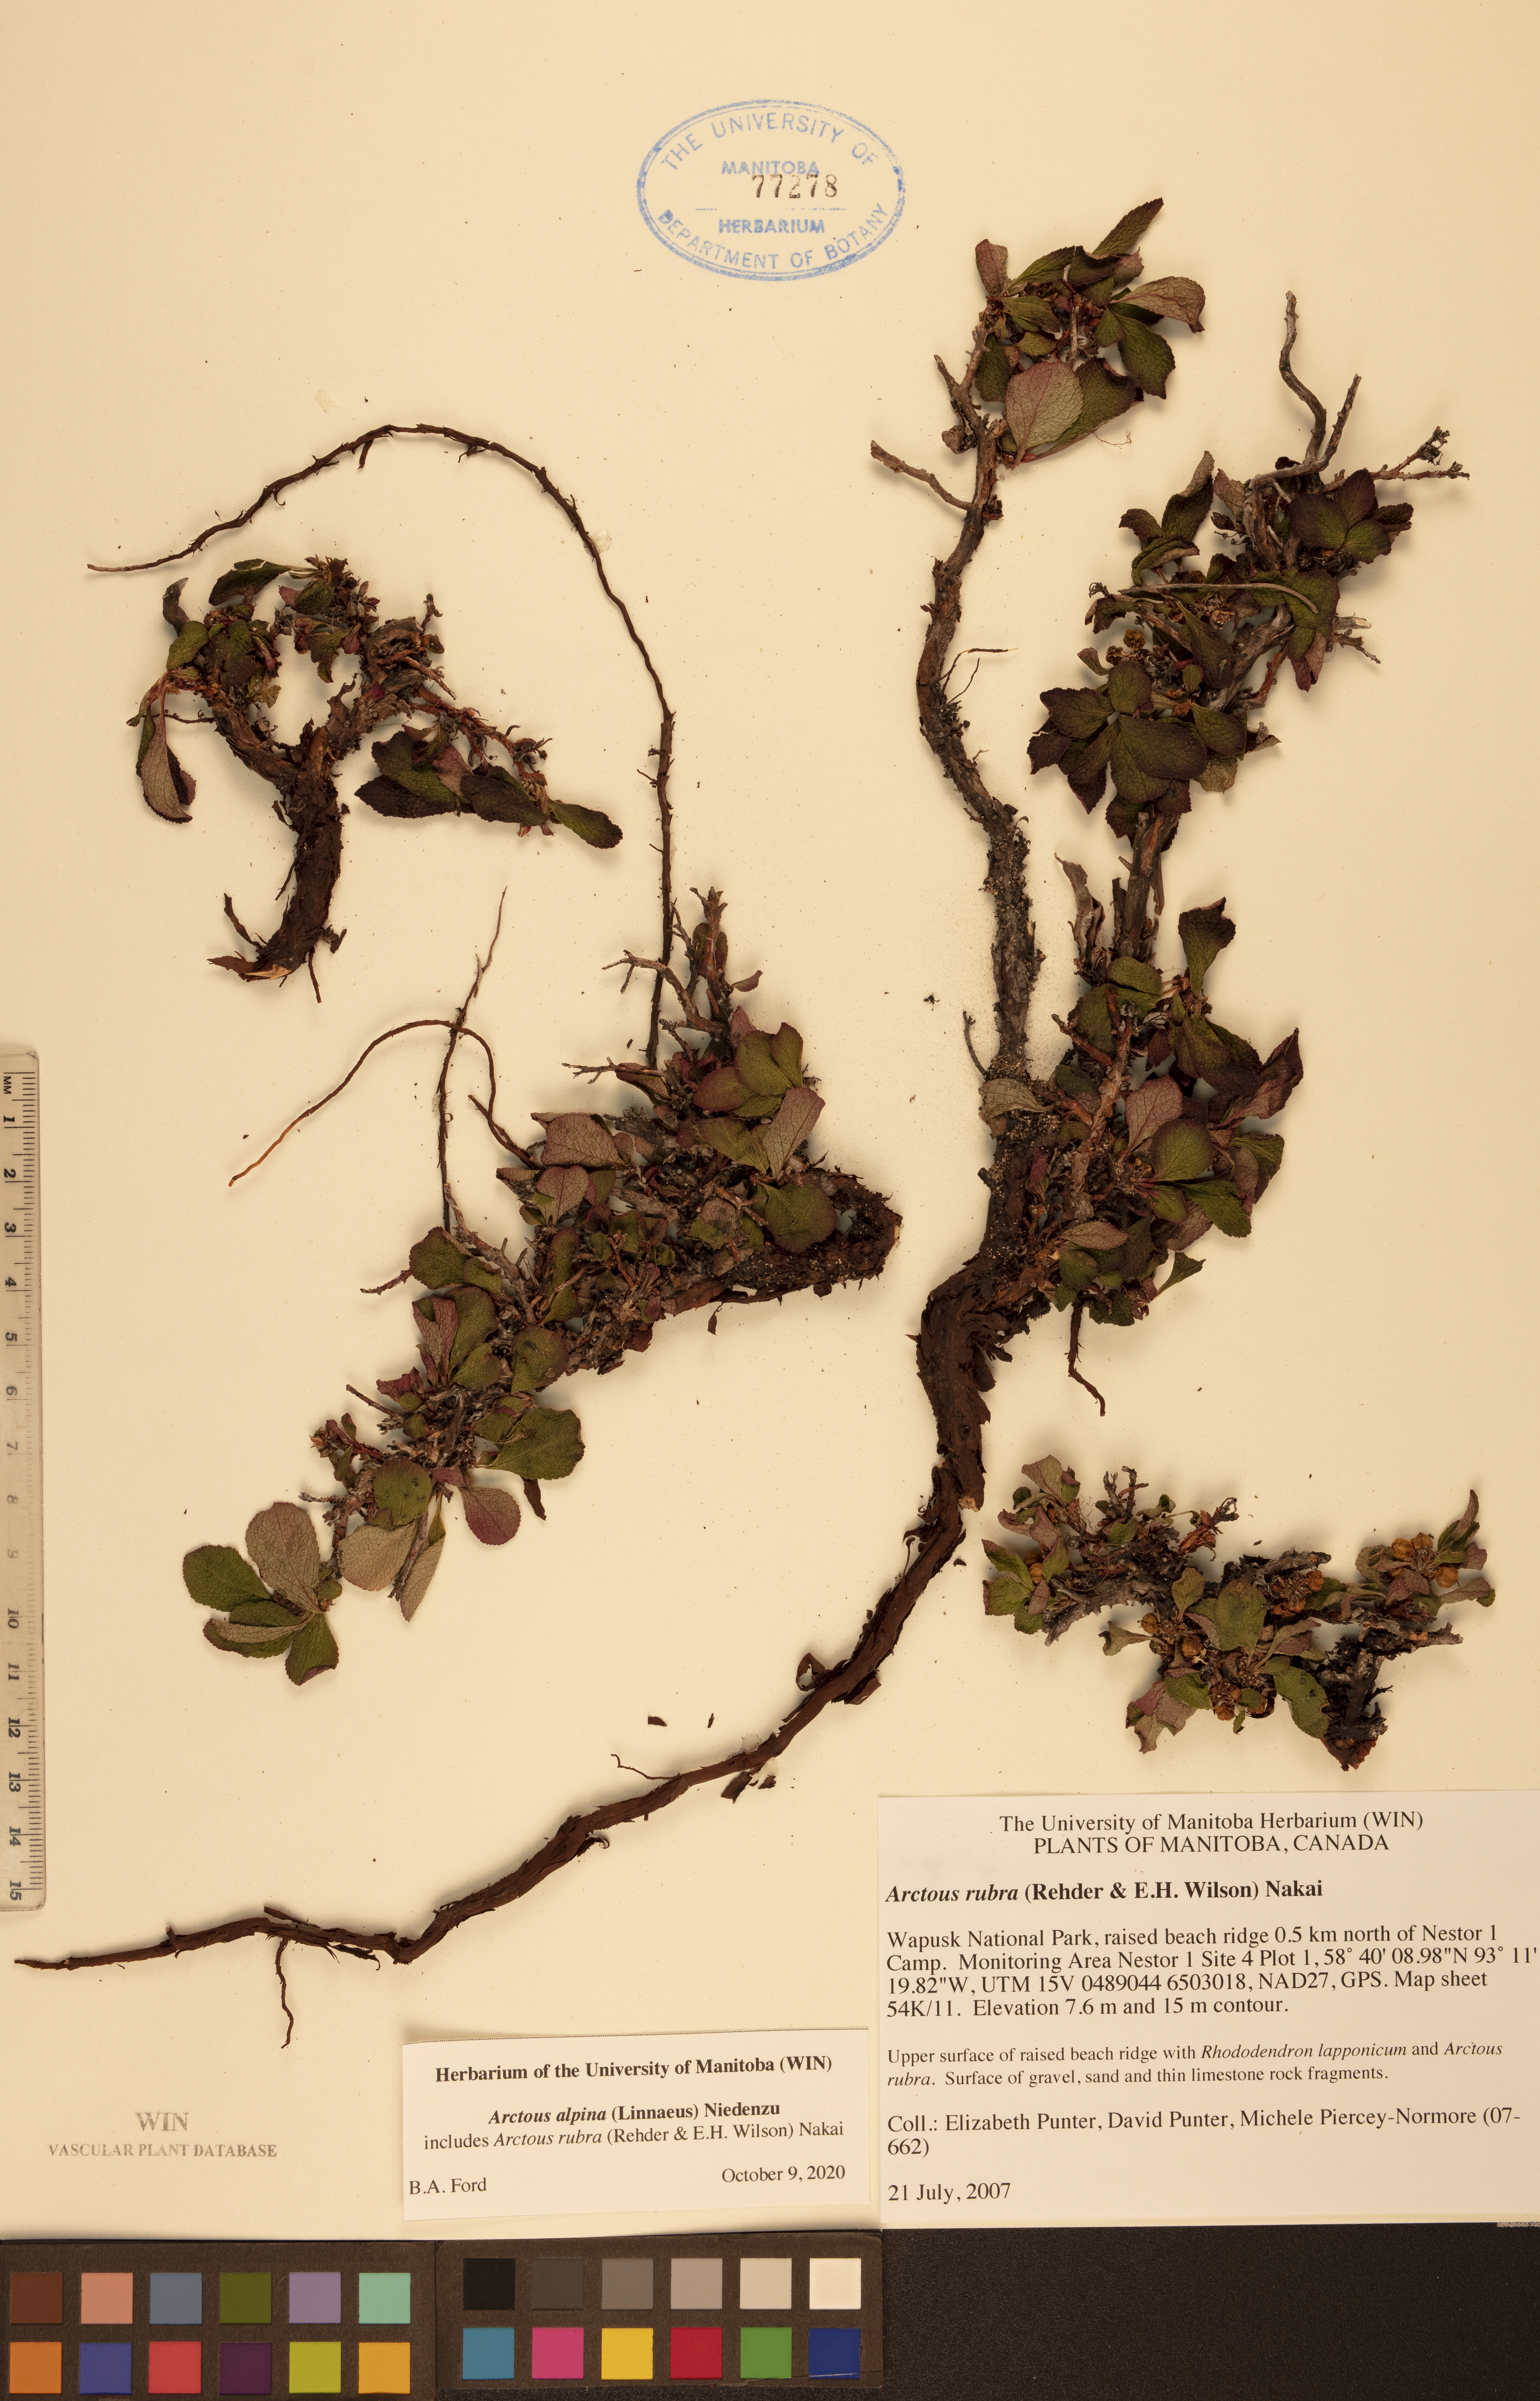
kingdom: Plantae
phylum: Tracheophyta
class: Magnoliopsida
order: Ericales
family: Ericaceae
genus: Arctostaphylos
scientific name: Arctostaphylos alpinus
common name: Alpine bearberry
